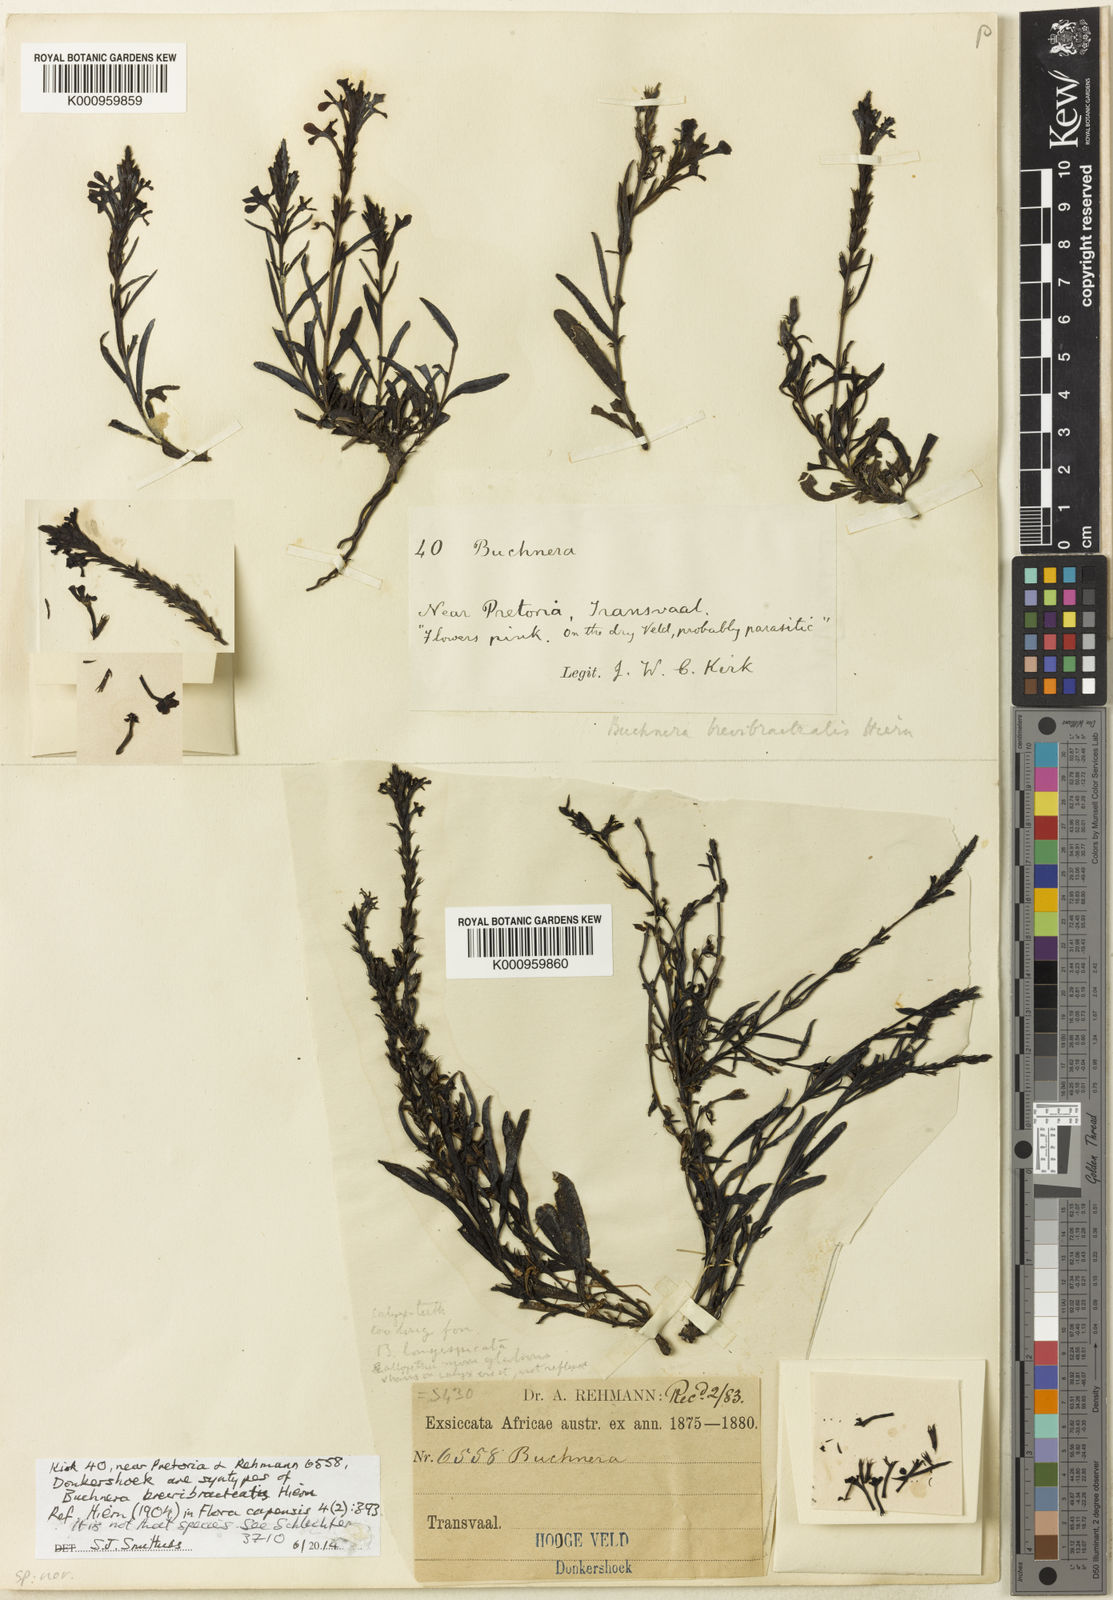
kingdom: Plantae
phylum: Tracheophyta
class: Magnoliopsida
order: Lamiales
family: Orobanchaceae
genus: Buchnera
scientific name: Buchnera
